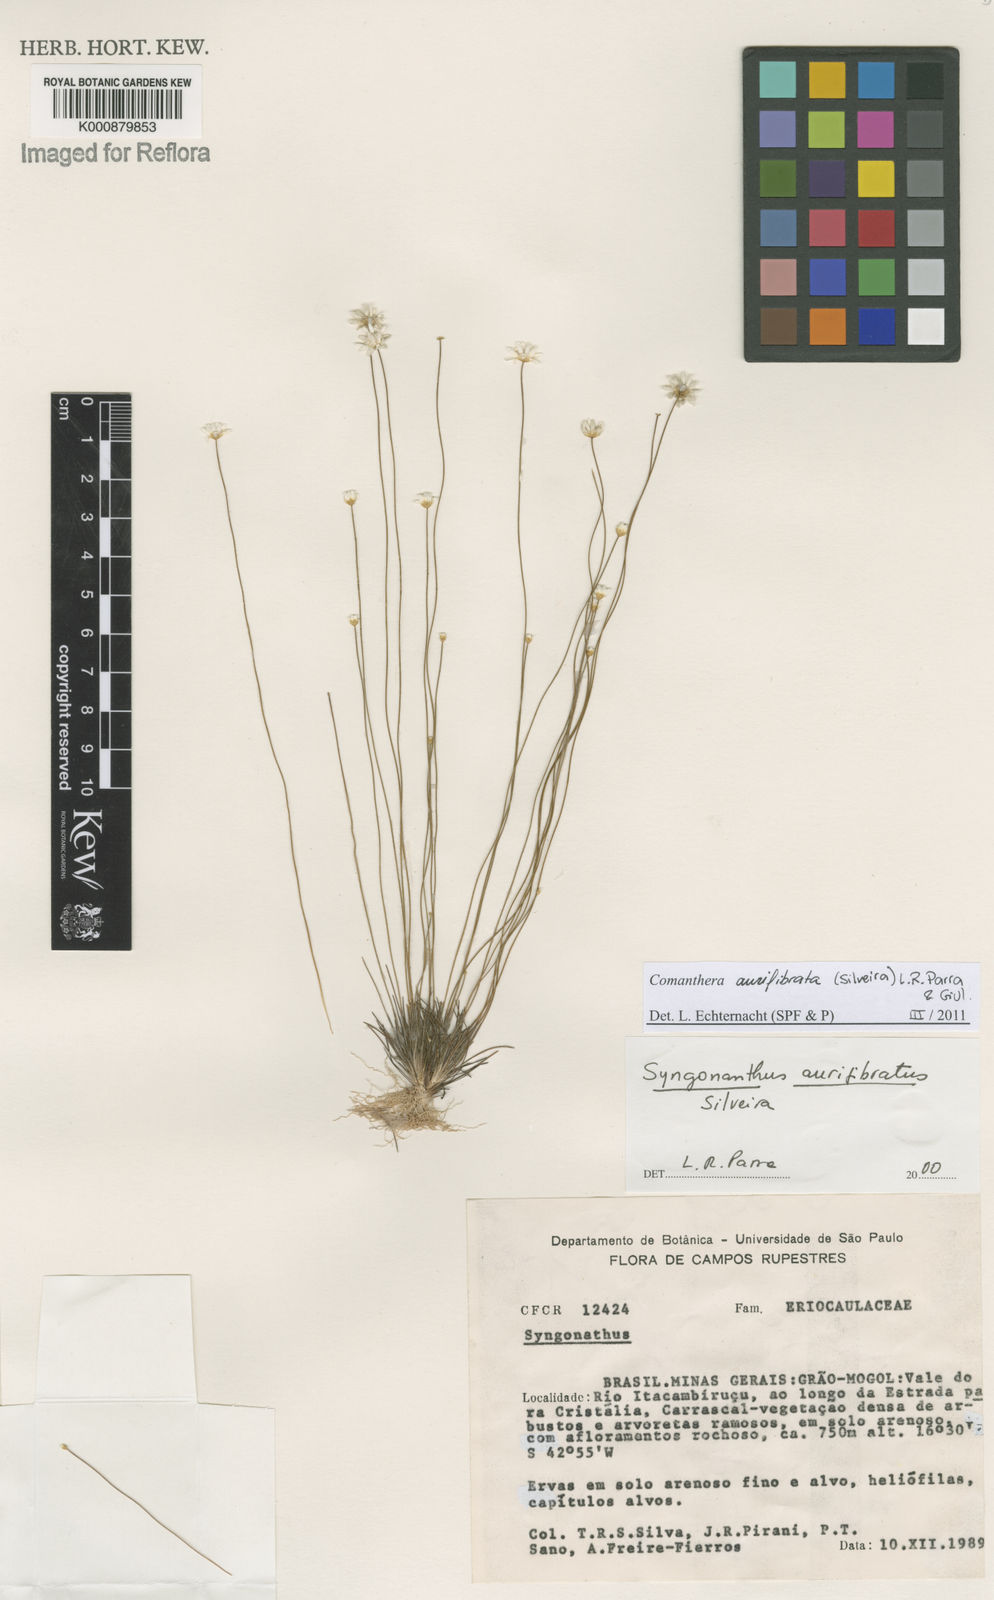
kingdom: Plantae
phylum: Tracheophyta
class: Liliopsida
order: Poales
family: Eriocaulaceae
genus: Comanthera
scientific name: Comanthera aurifibrata
